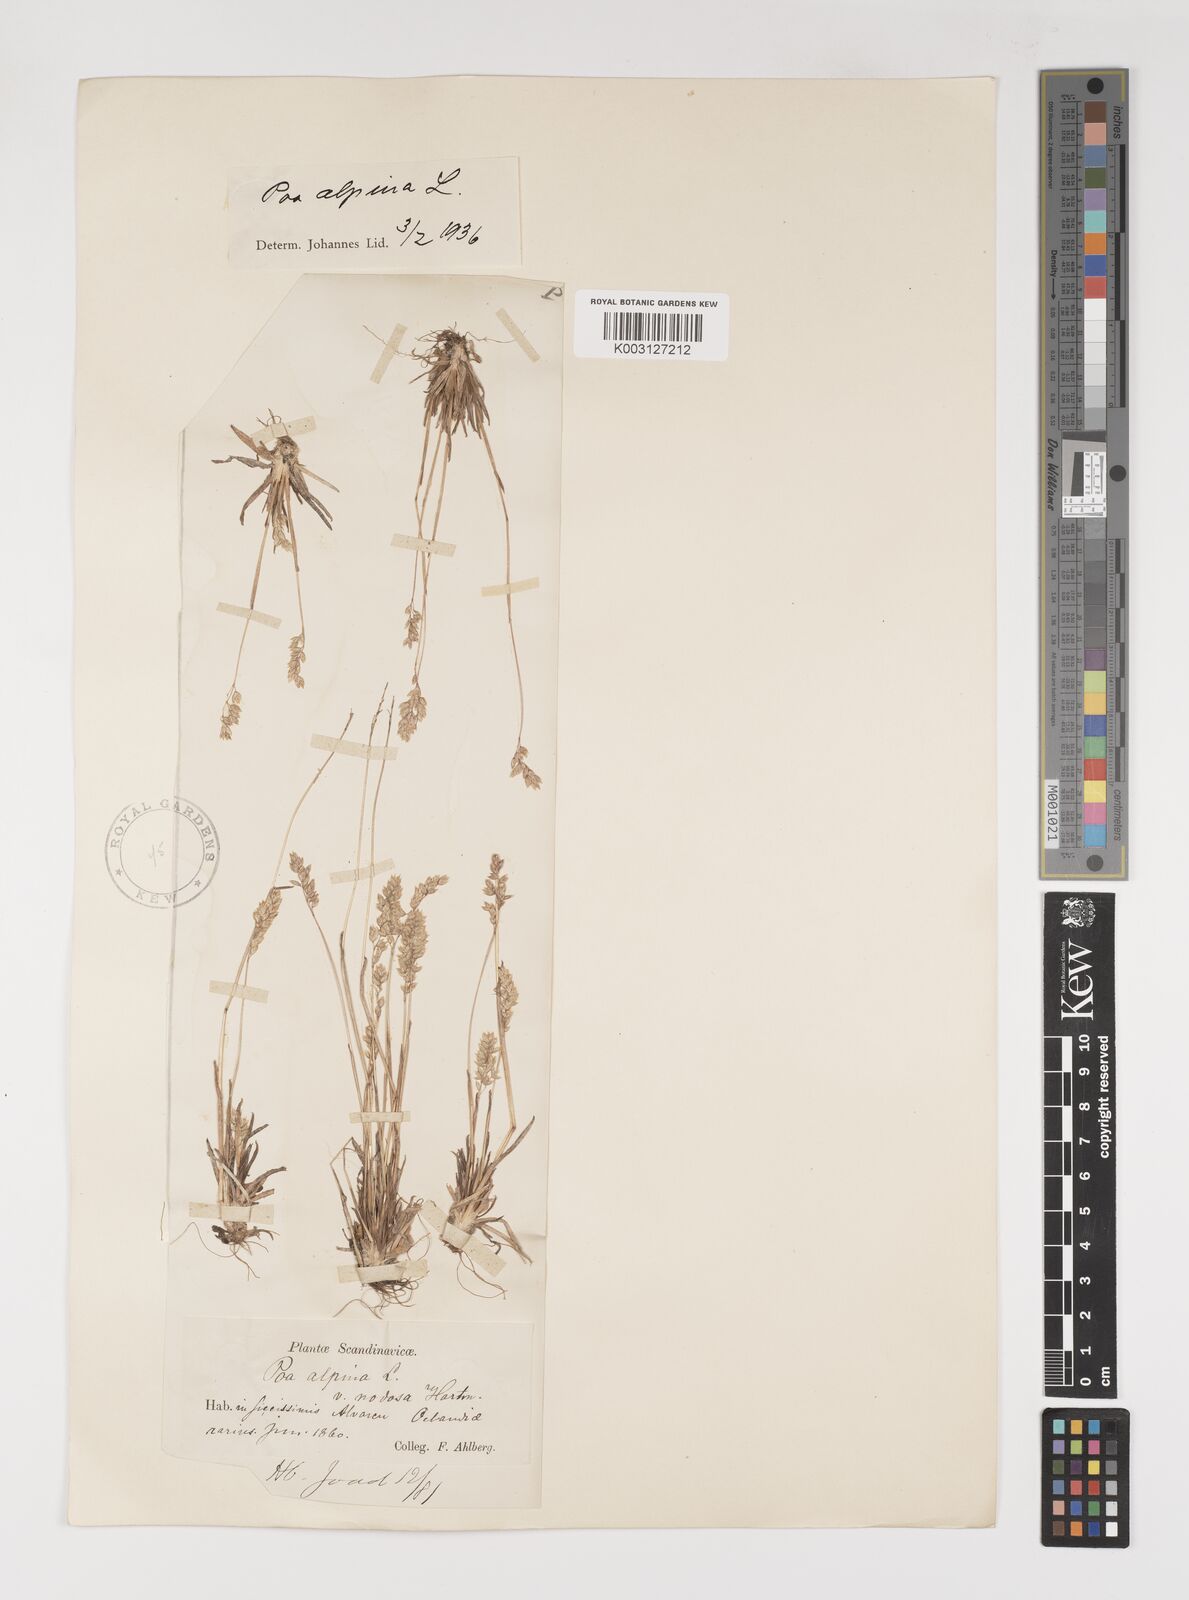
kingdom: Plantae
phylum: Tracheophyta
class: Liliopsida
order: Poales
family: Poaceae
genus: Poa
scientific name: Poa alpina
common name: Alpine bluegrass
